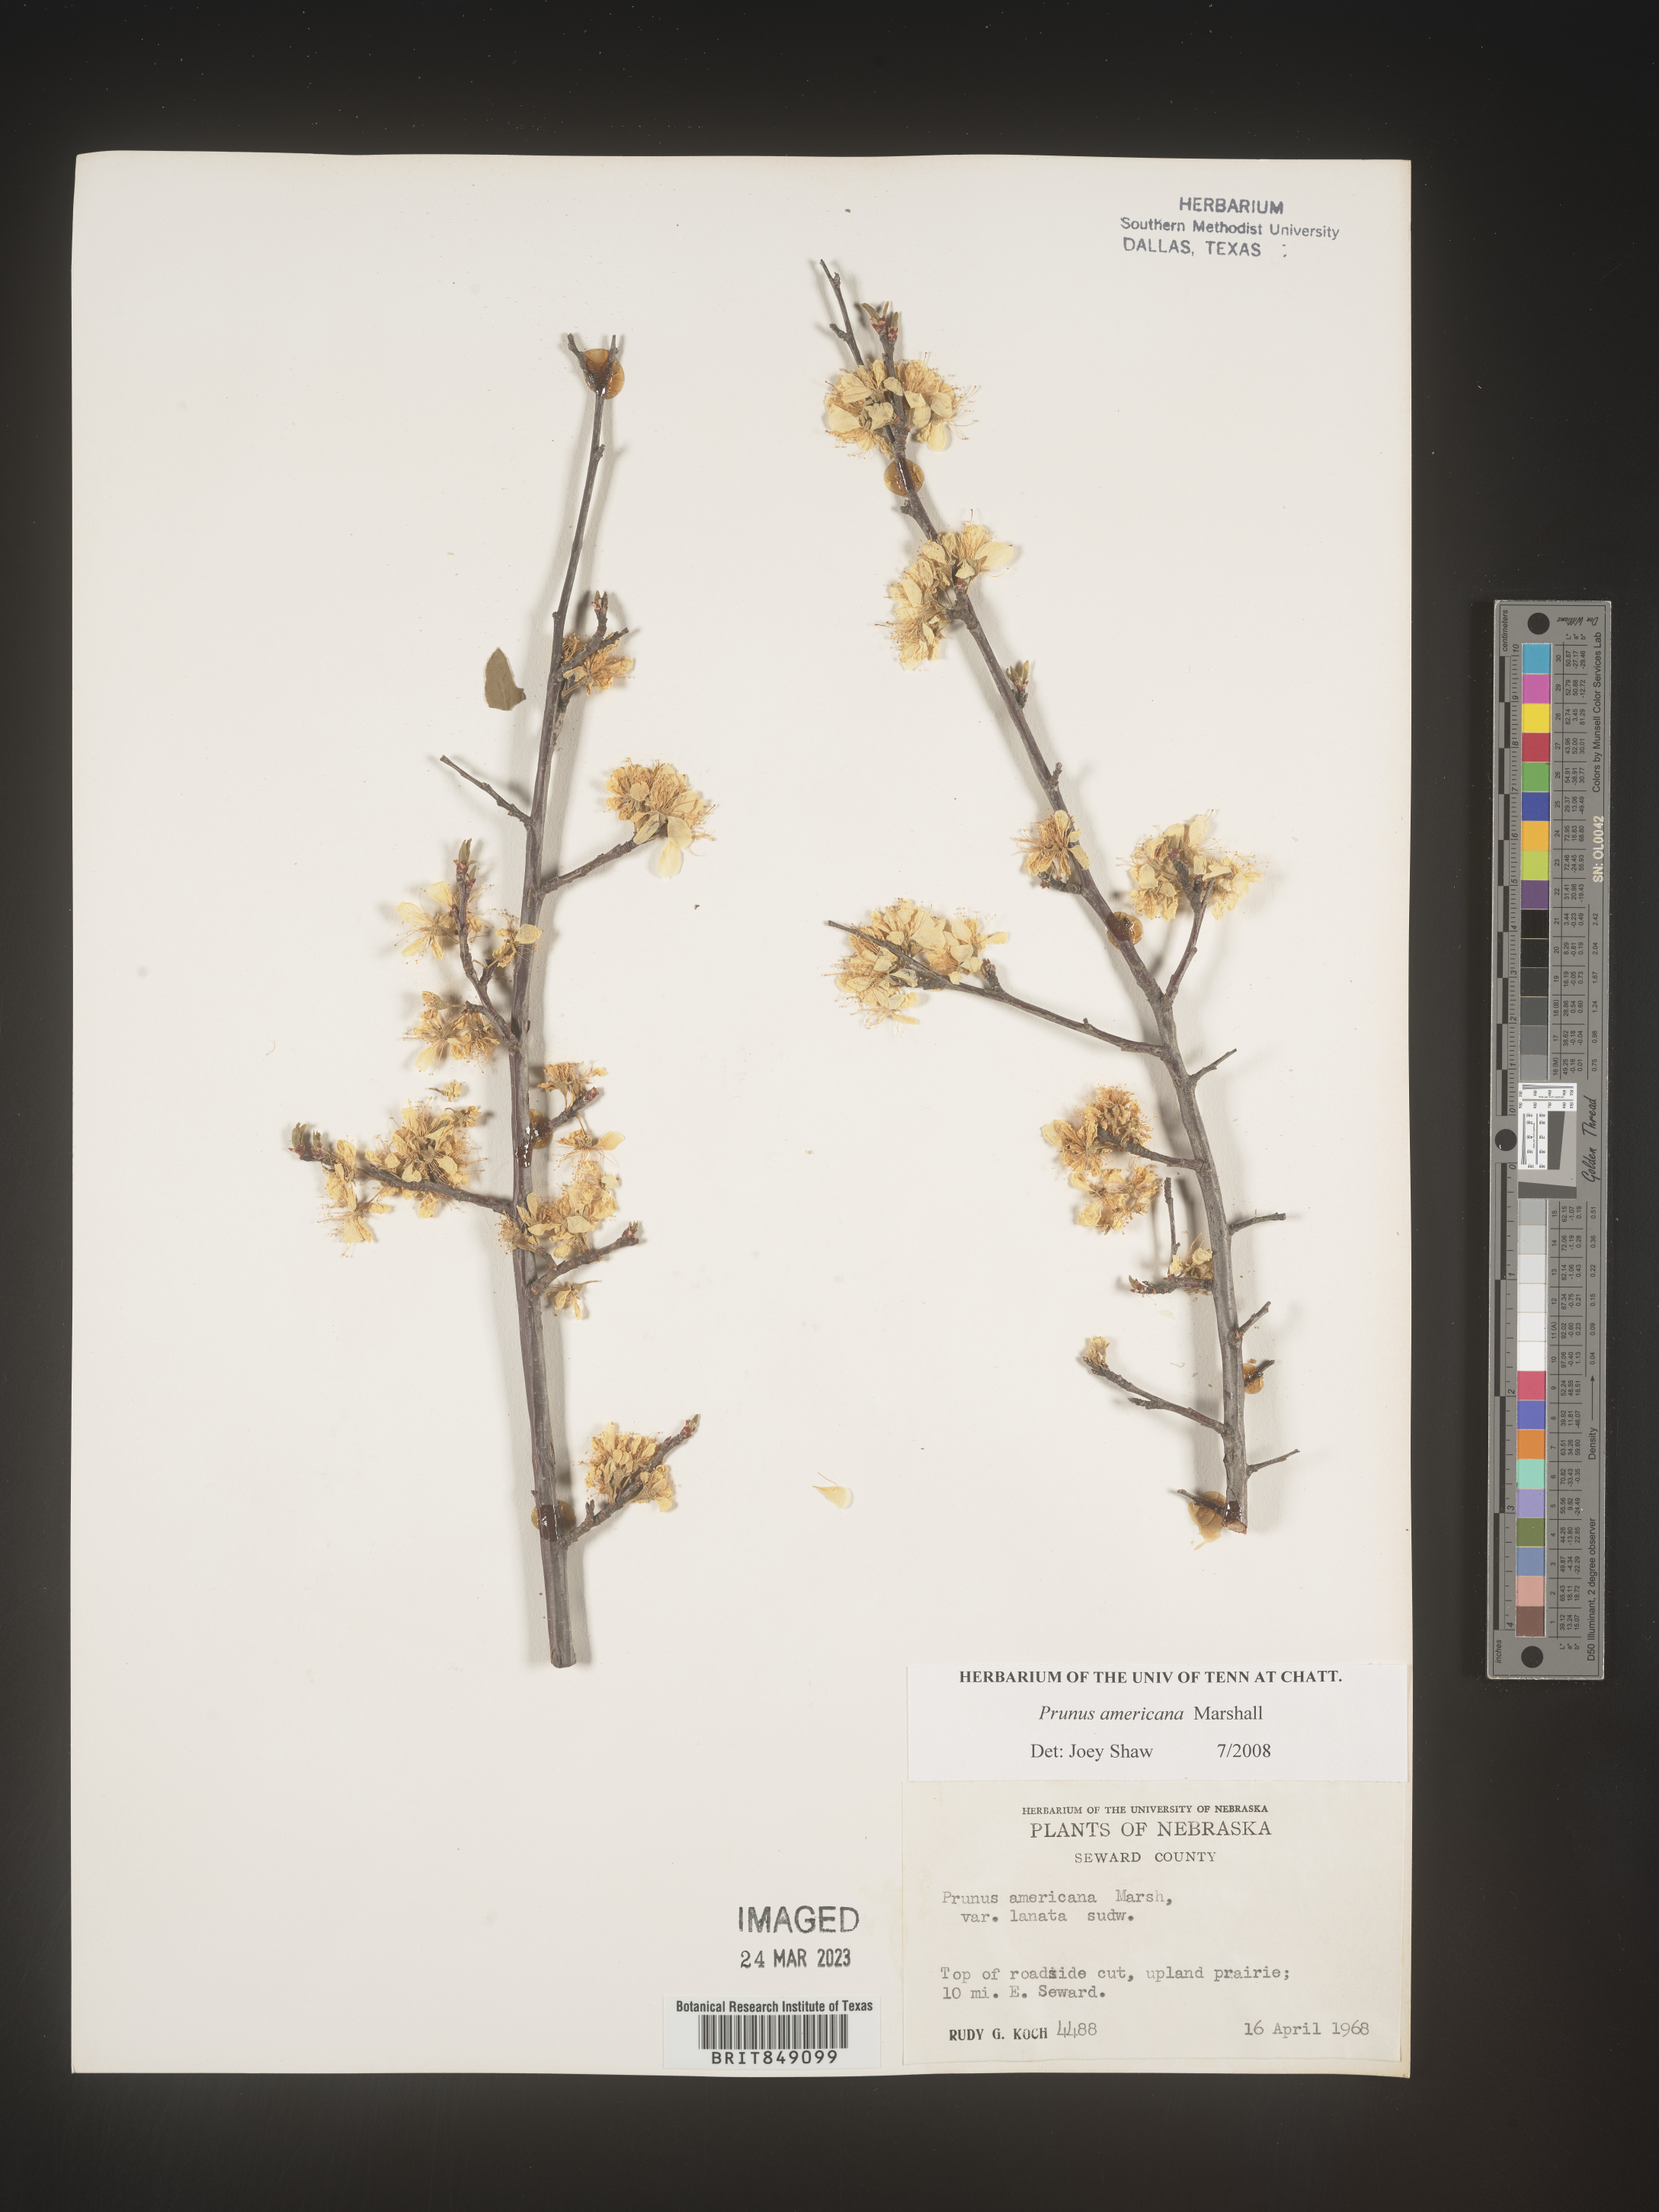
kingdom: Plantae
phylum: Tracheophyta
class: Magnoliopsida
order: Rosales
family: Rosaceae
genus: Prunus
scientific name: Prunus americana
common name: American plum
